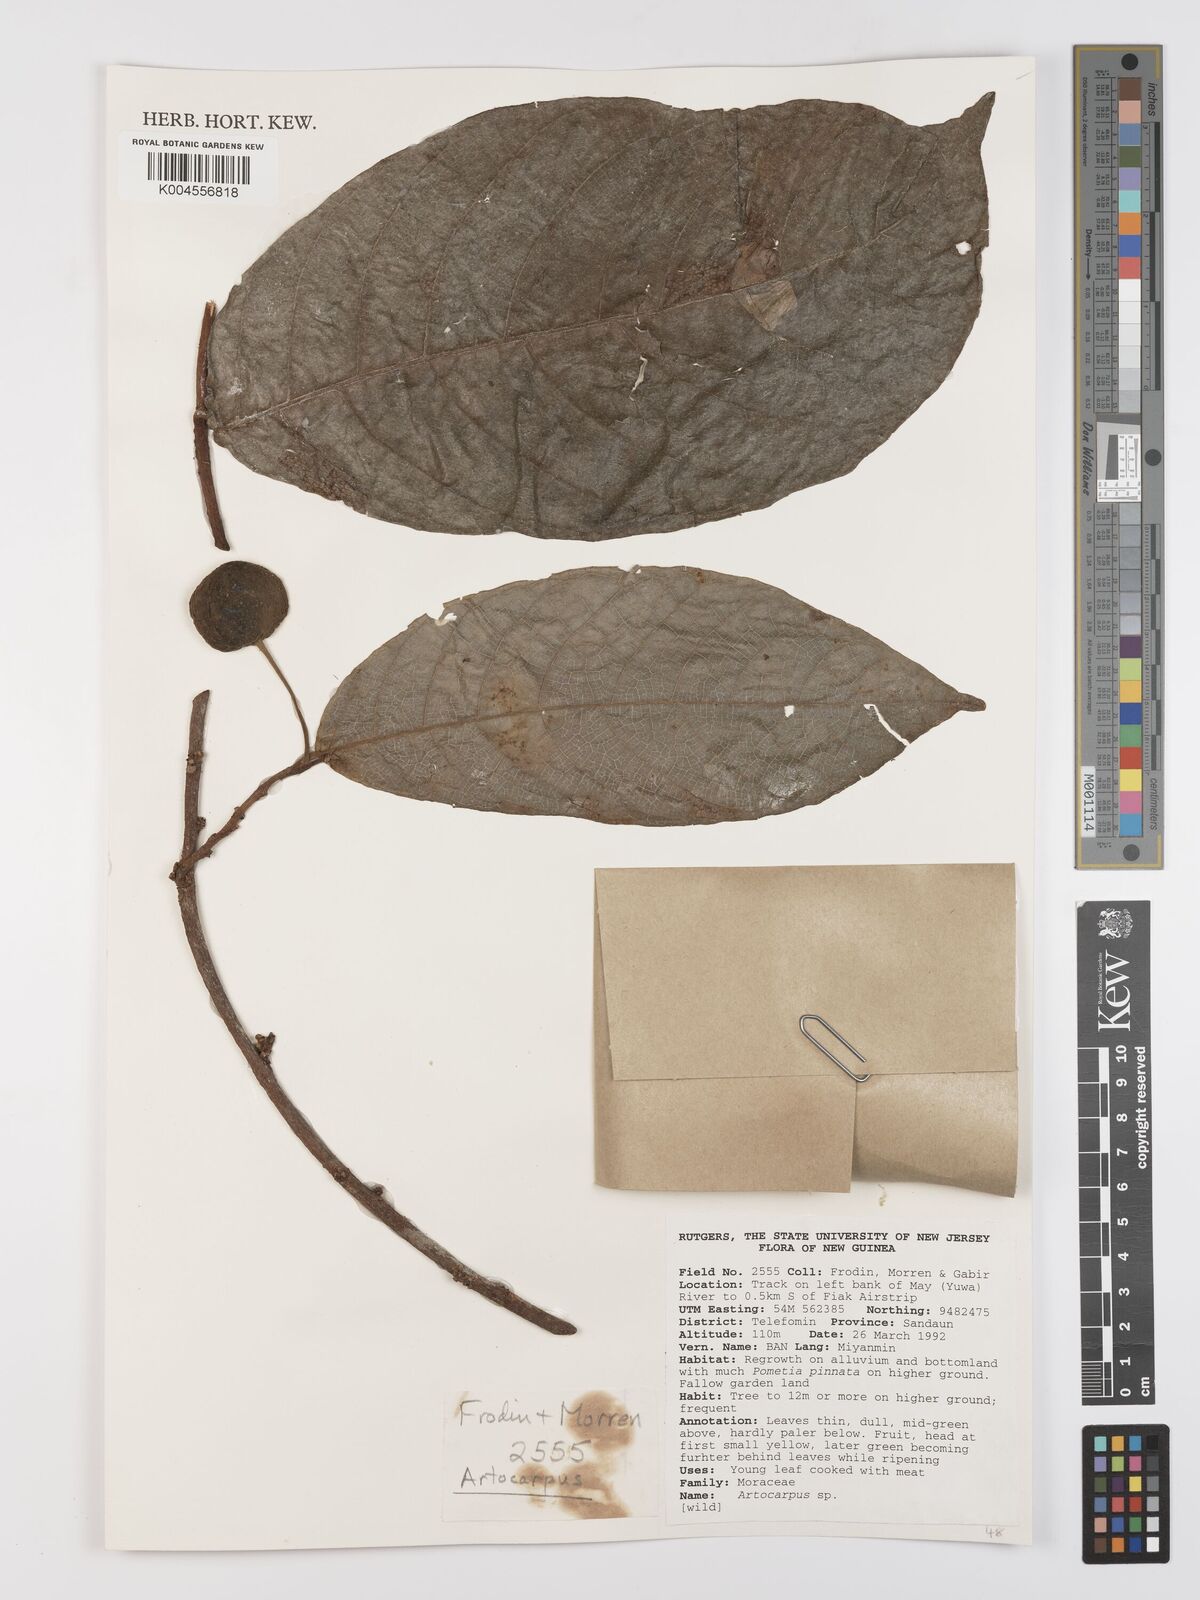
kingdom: Plantae
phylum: Tracheophyta
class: Magnoliopsida
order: Rosales
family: Moraceae
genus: Artocarpus
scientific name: Artocarpus
